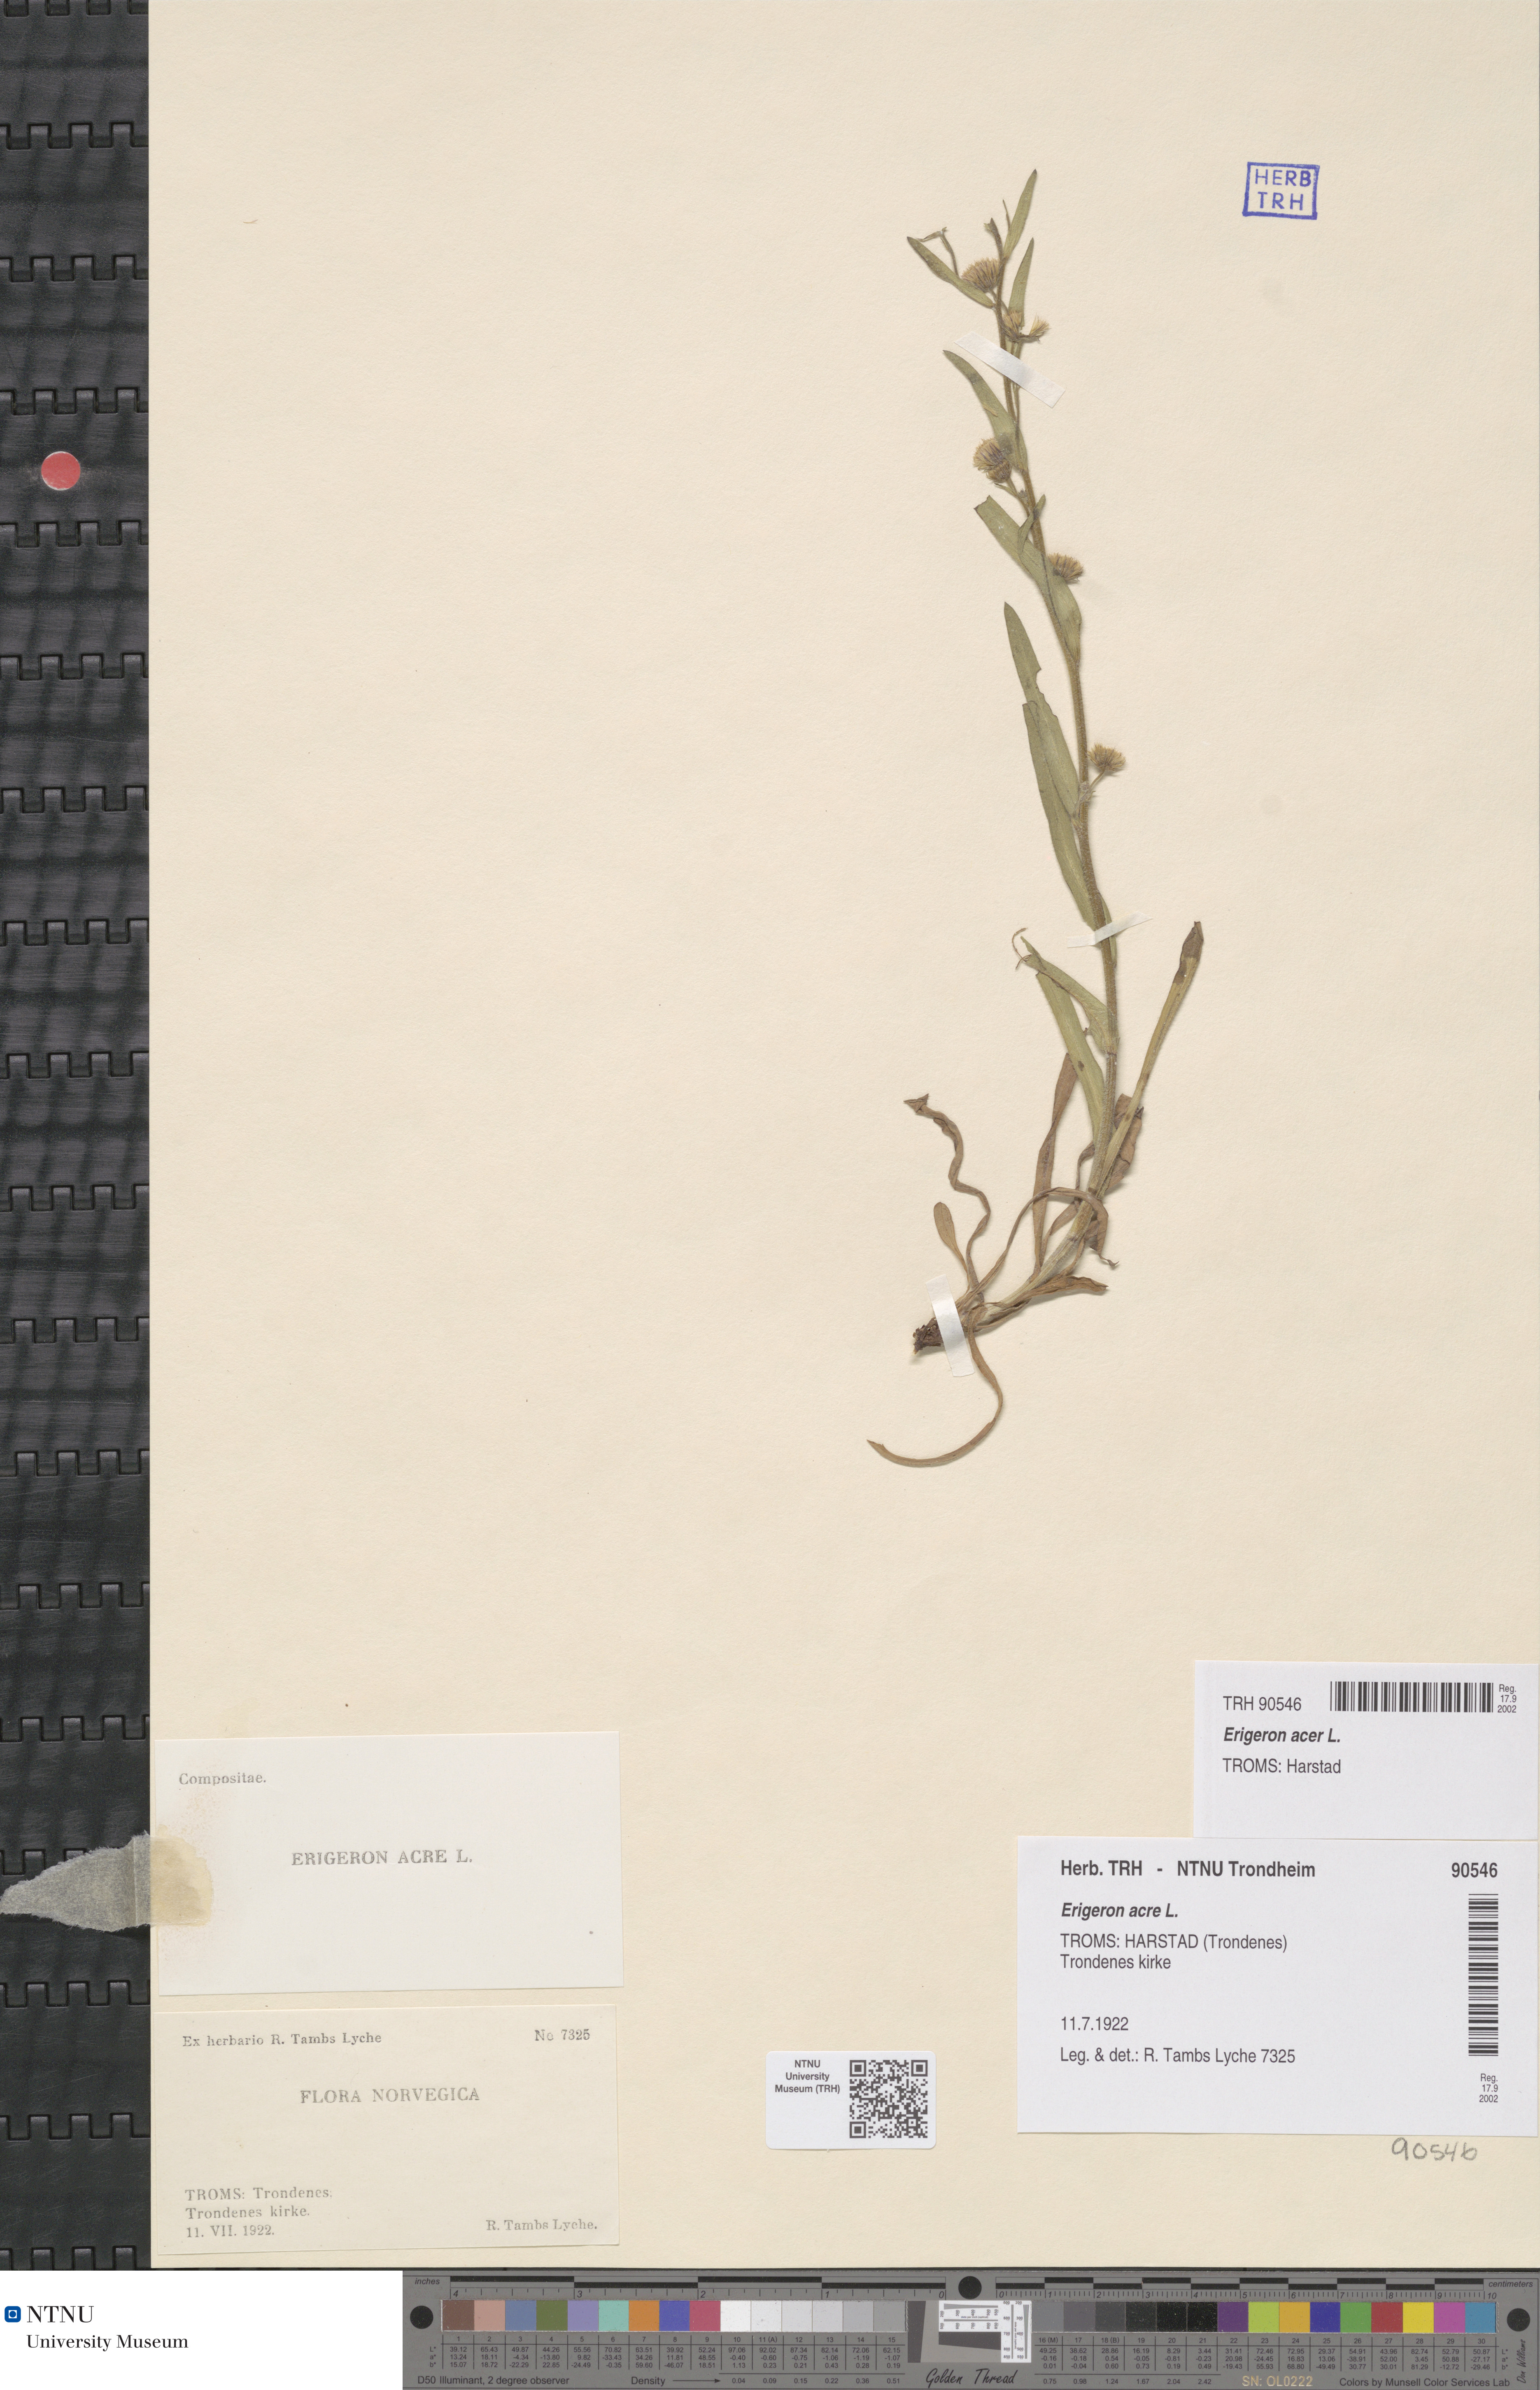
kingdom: Plantae
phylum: Tracheophyta
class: Magnoliopsida
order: Asterales
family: Asteraceae
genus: Erigeron
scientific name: Erigeron acris
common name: Blue fleabane
